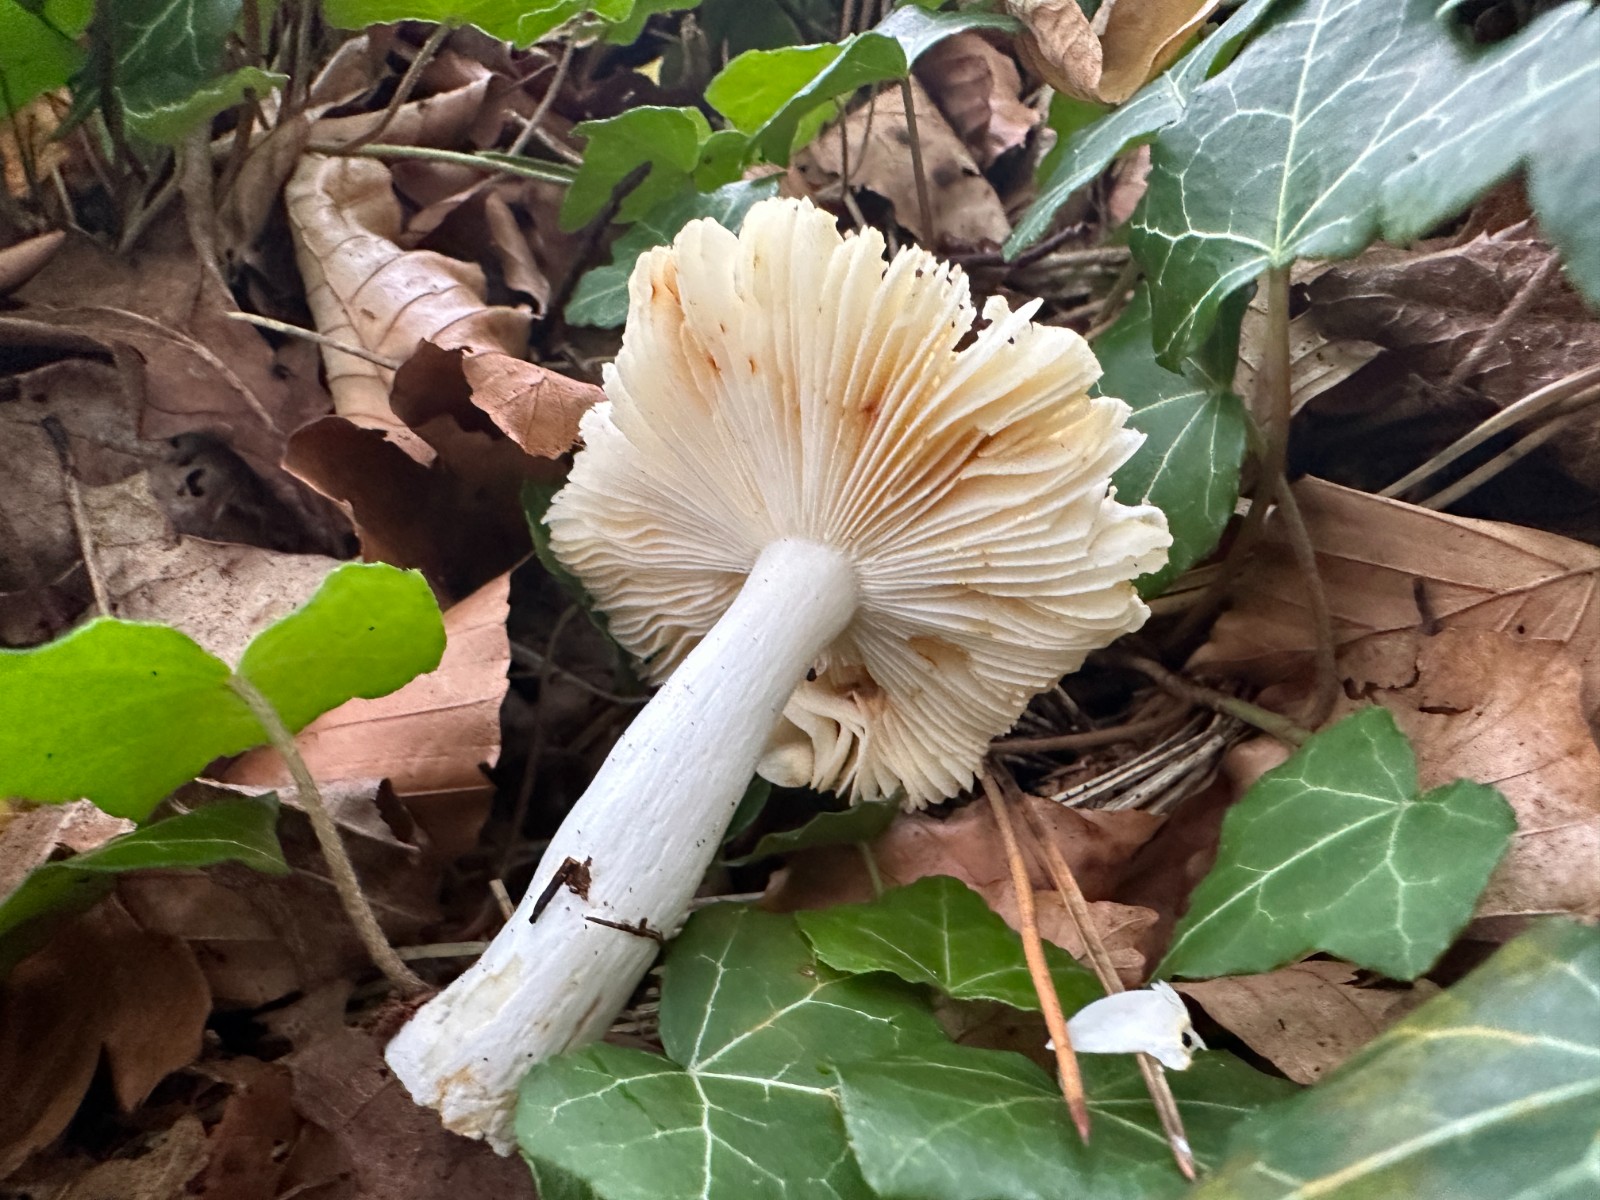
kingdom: Fungi
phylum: Basidiomycota
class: Agaricomycetes
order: Russulales
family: Russulaceae
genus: Russula
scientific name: Russula solaris
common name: sol-skørhat
